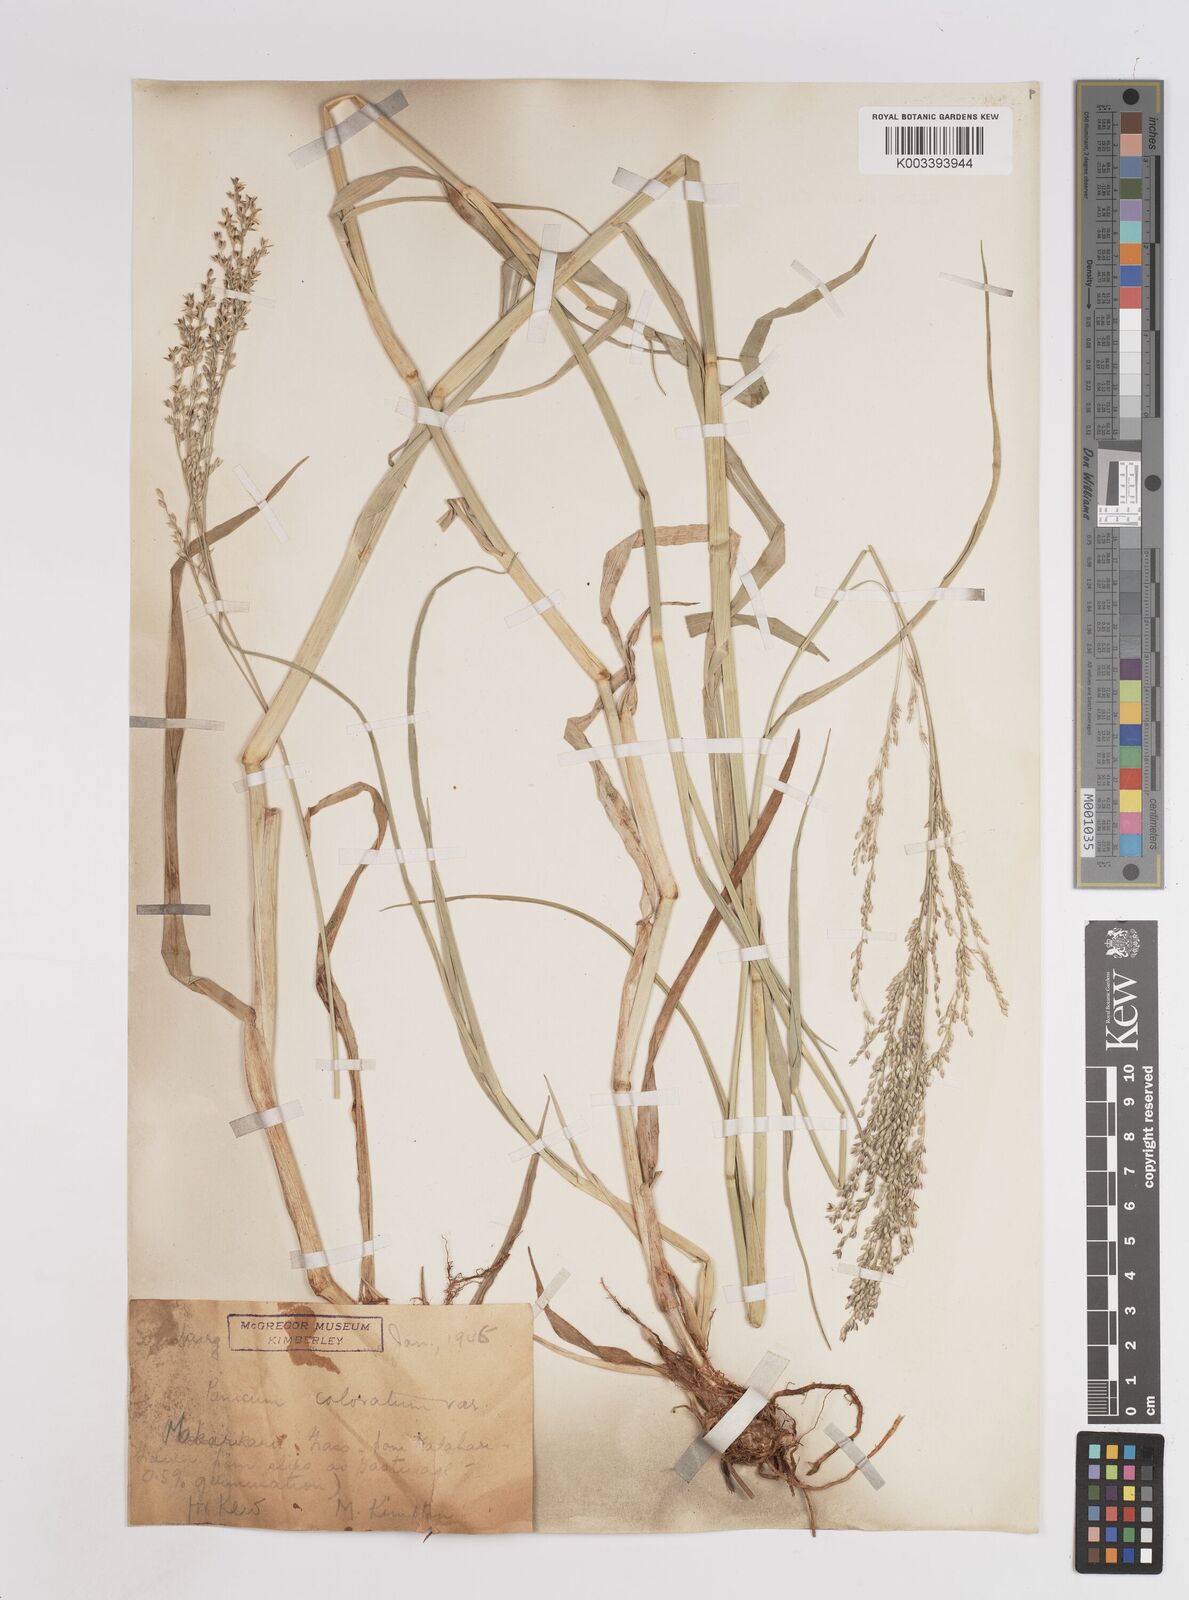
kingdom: Plantae
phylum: Tracheophyta
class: Liliopsida
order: Poales
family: Poaceae
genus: Panicum
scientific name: Panicum coloratum
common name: Kleingrass
